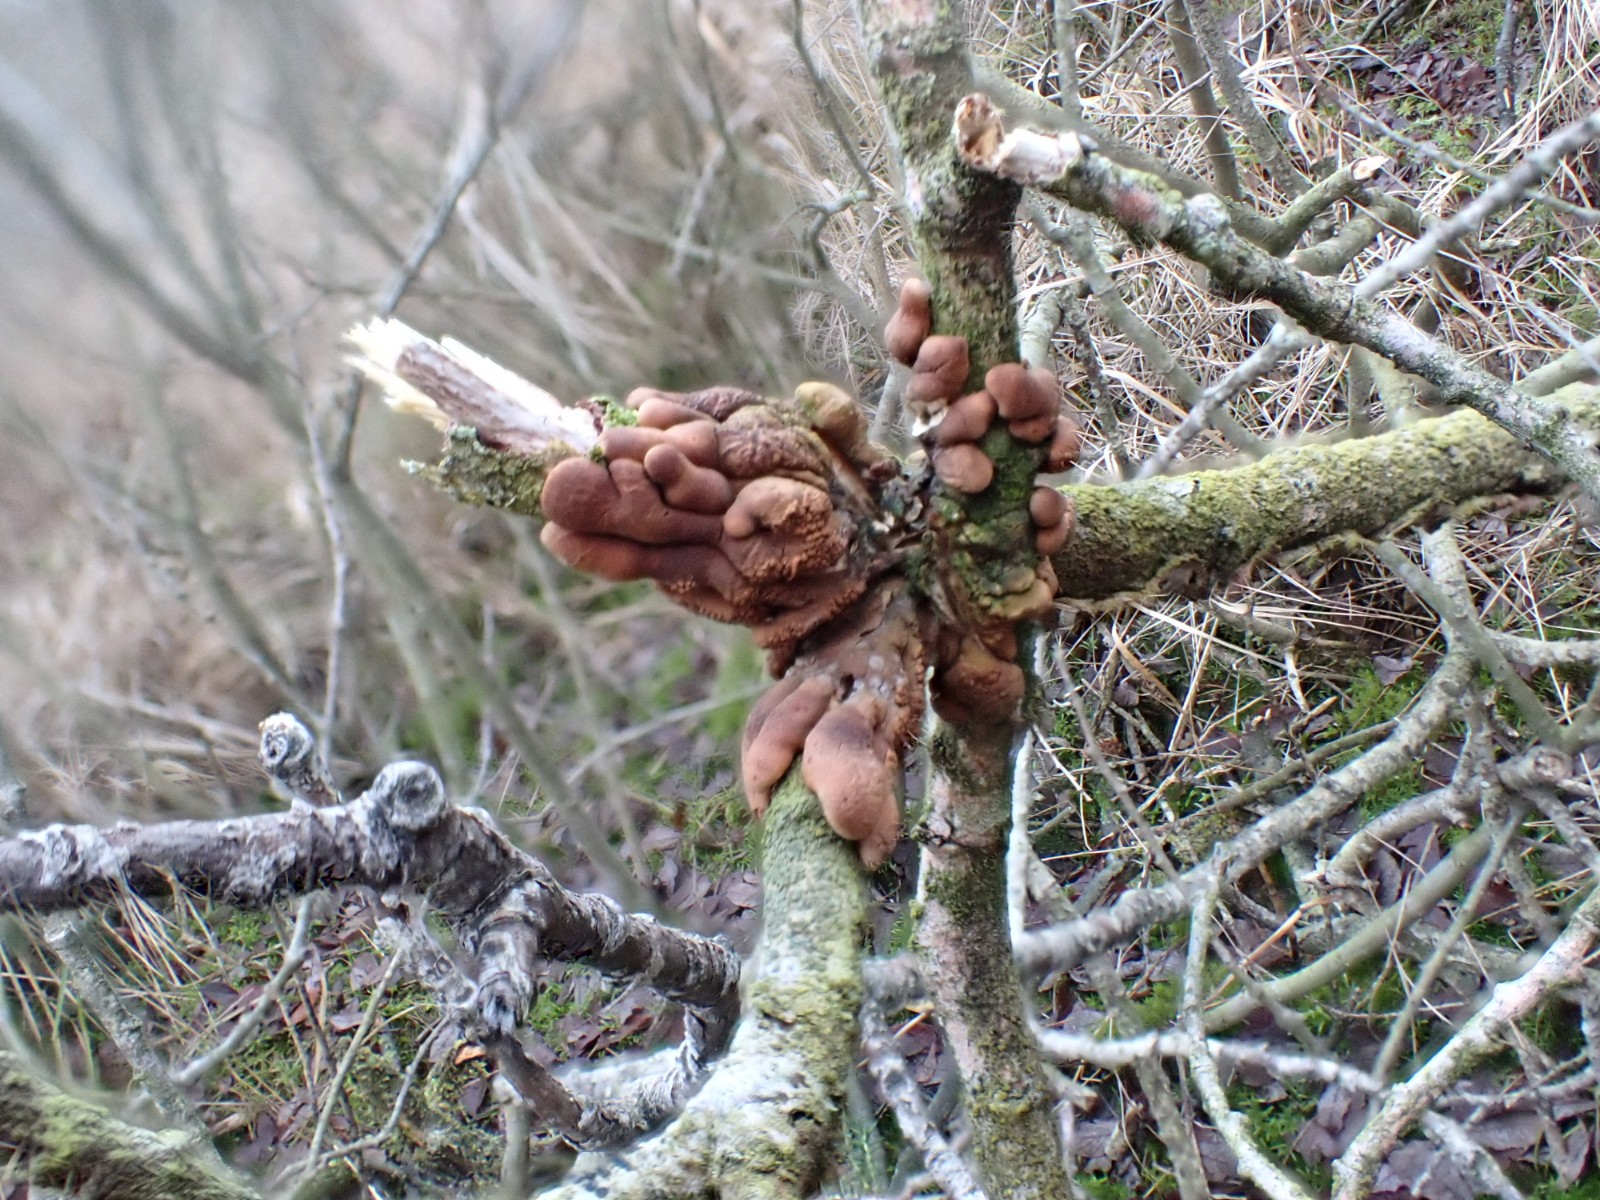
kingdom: Fungi
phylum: Ascomycota
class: Sordariomycetes
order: Hypocreales
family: Hypocreaceae
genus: Hypocreopsis
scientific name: Hypocreopsis lichenoides
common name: pilfinger
